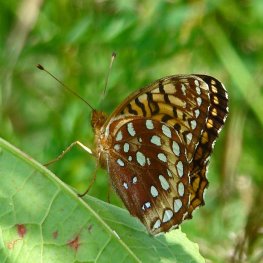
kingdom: Animalia
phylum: Arthropoda
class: Insecta
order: Lepidoptera
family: Nymphalidae
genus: Speyeria
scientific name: Speyeria cybele
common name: Great Spangled Fritillary
